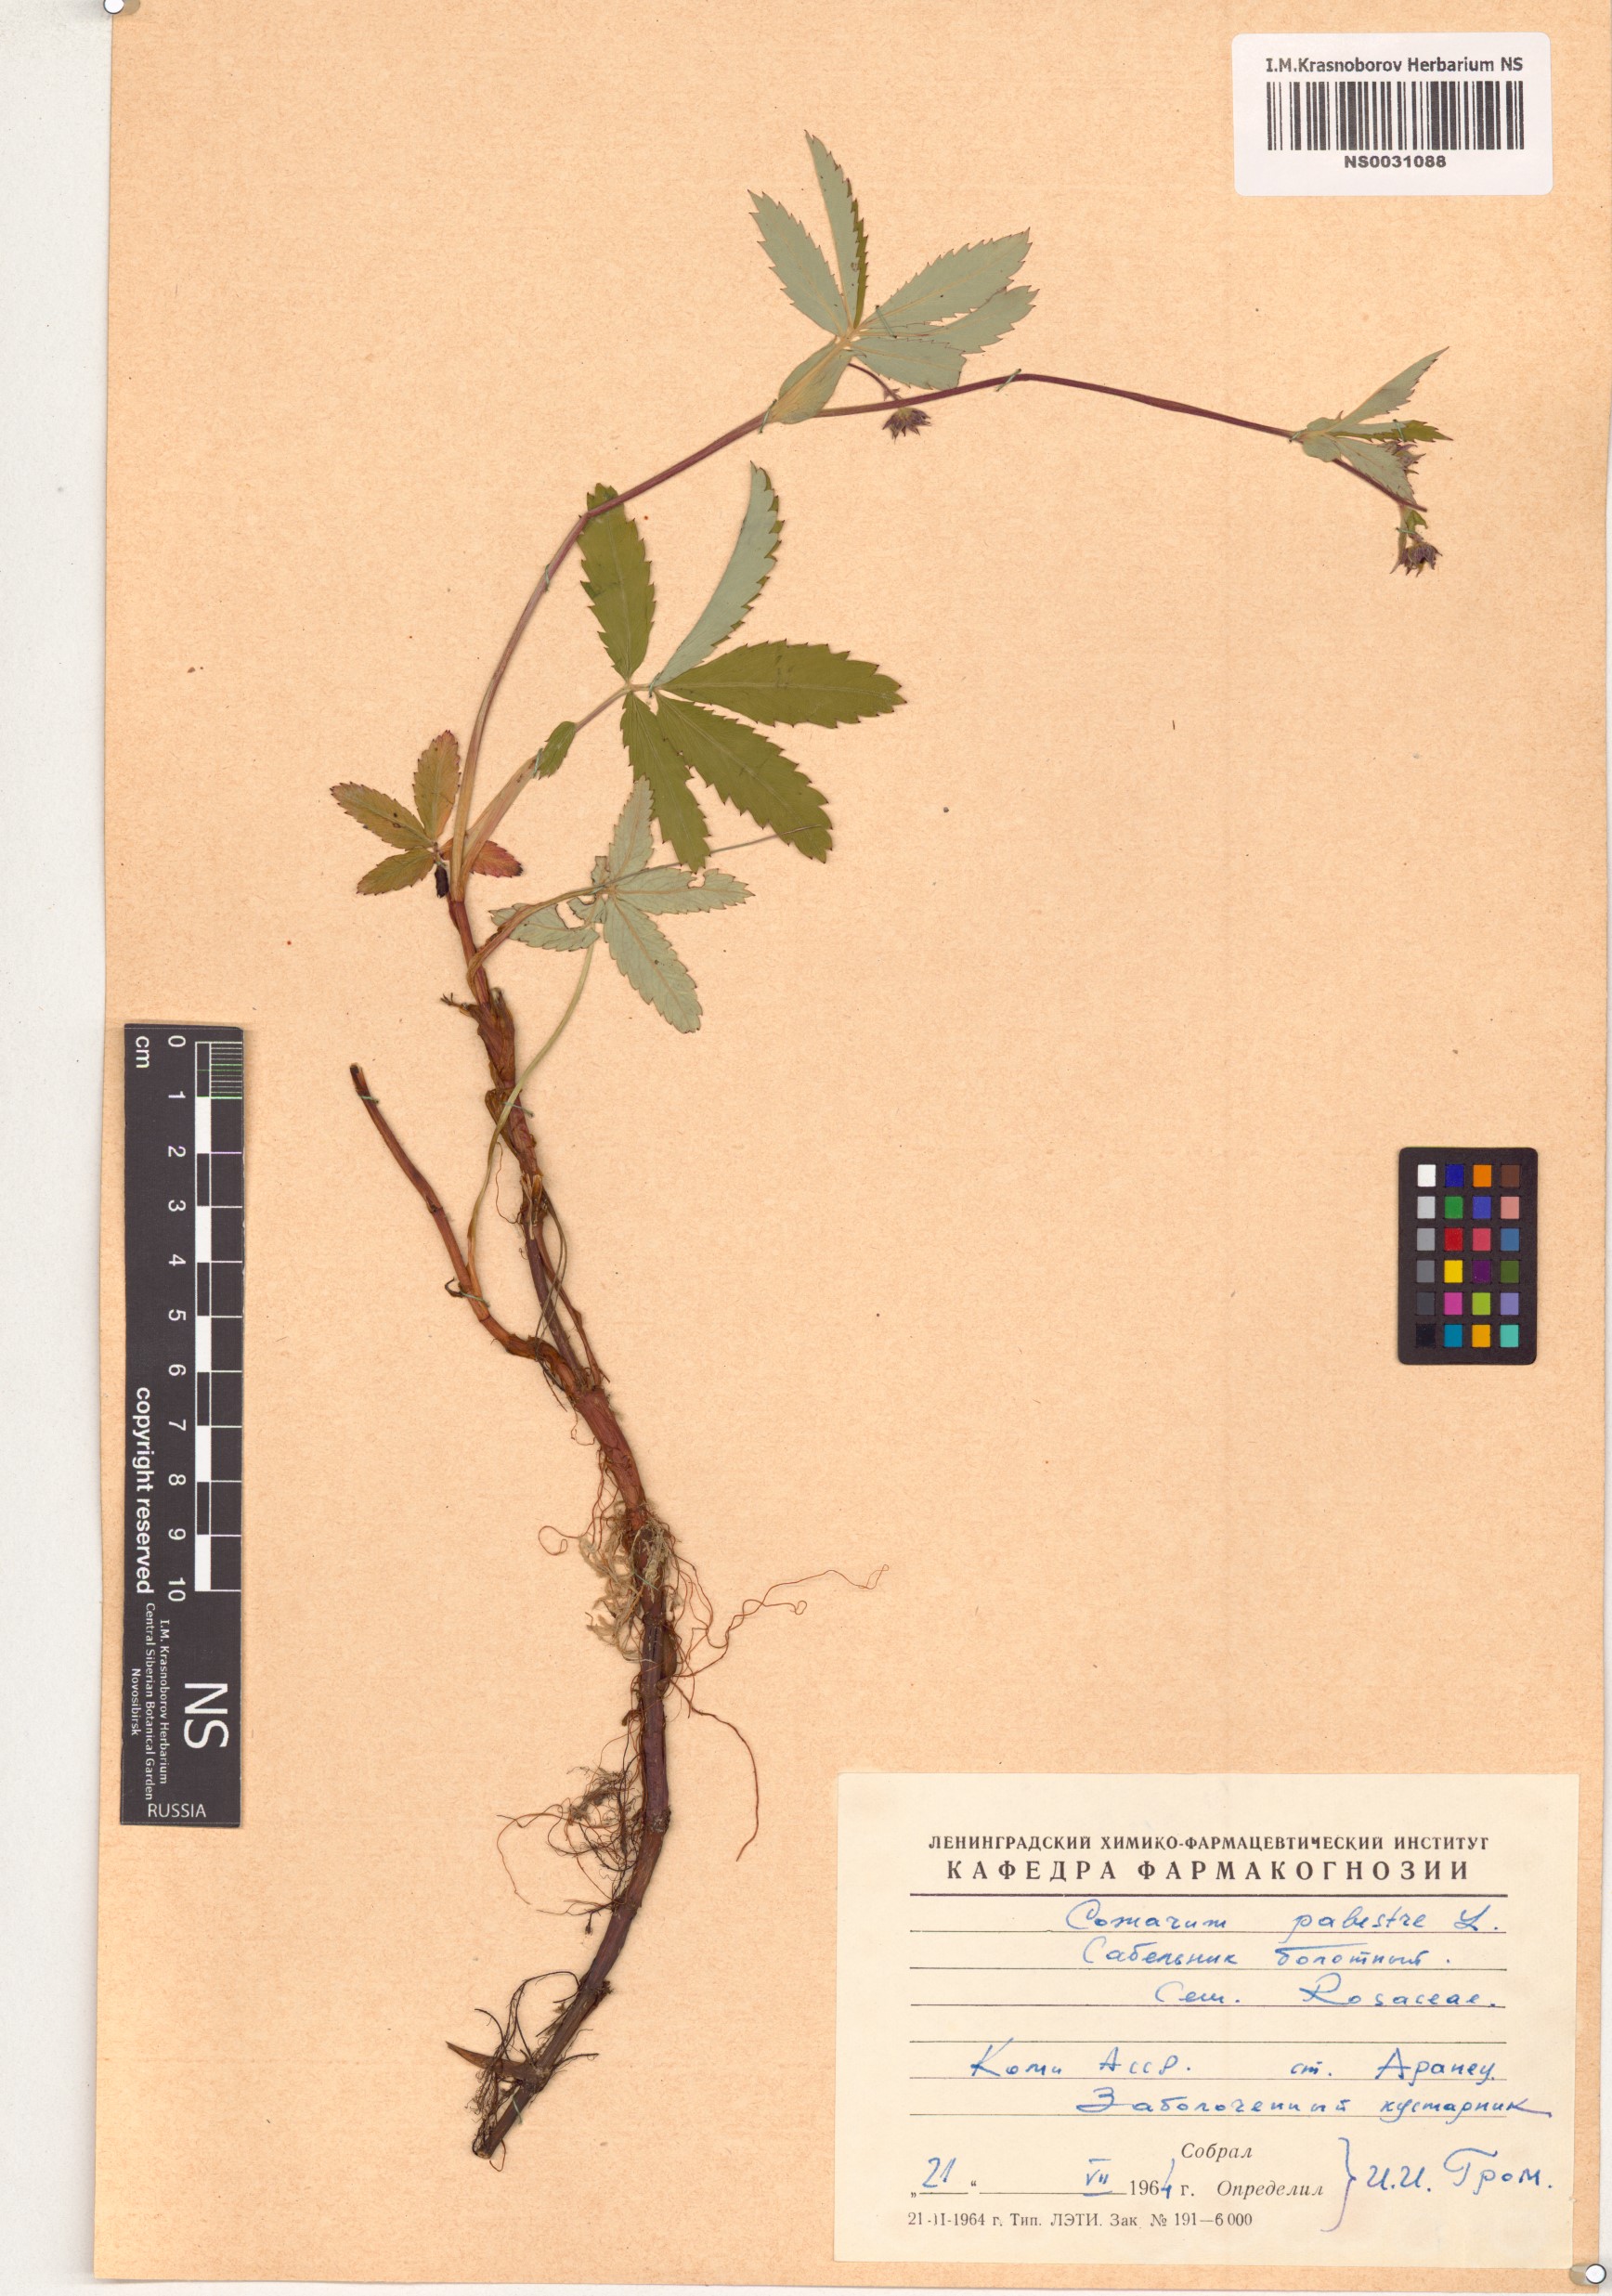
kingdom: Plantae
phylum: Tracheophyta
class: Magnoliopsida
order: Rosales
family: Rosaceae
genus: Comarum
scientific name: Comarum palustre
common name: Marsh cinquefoil
